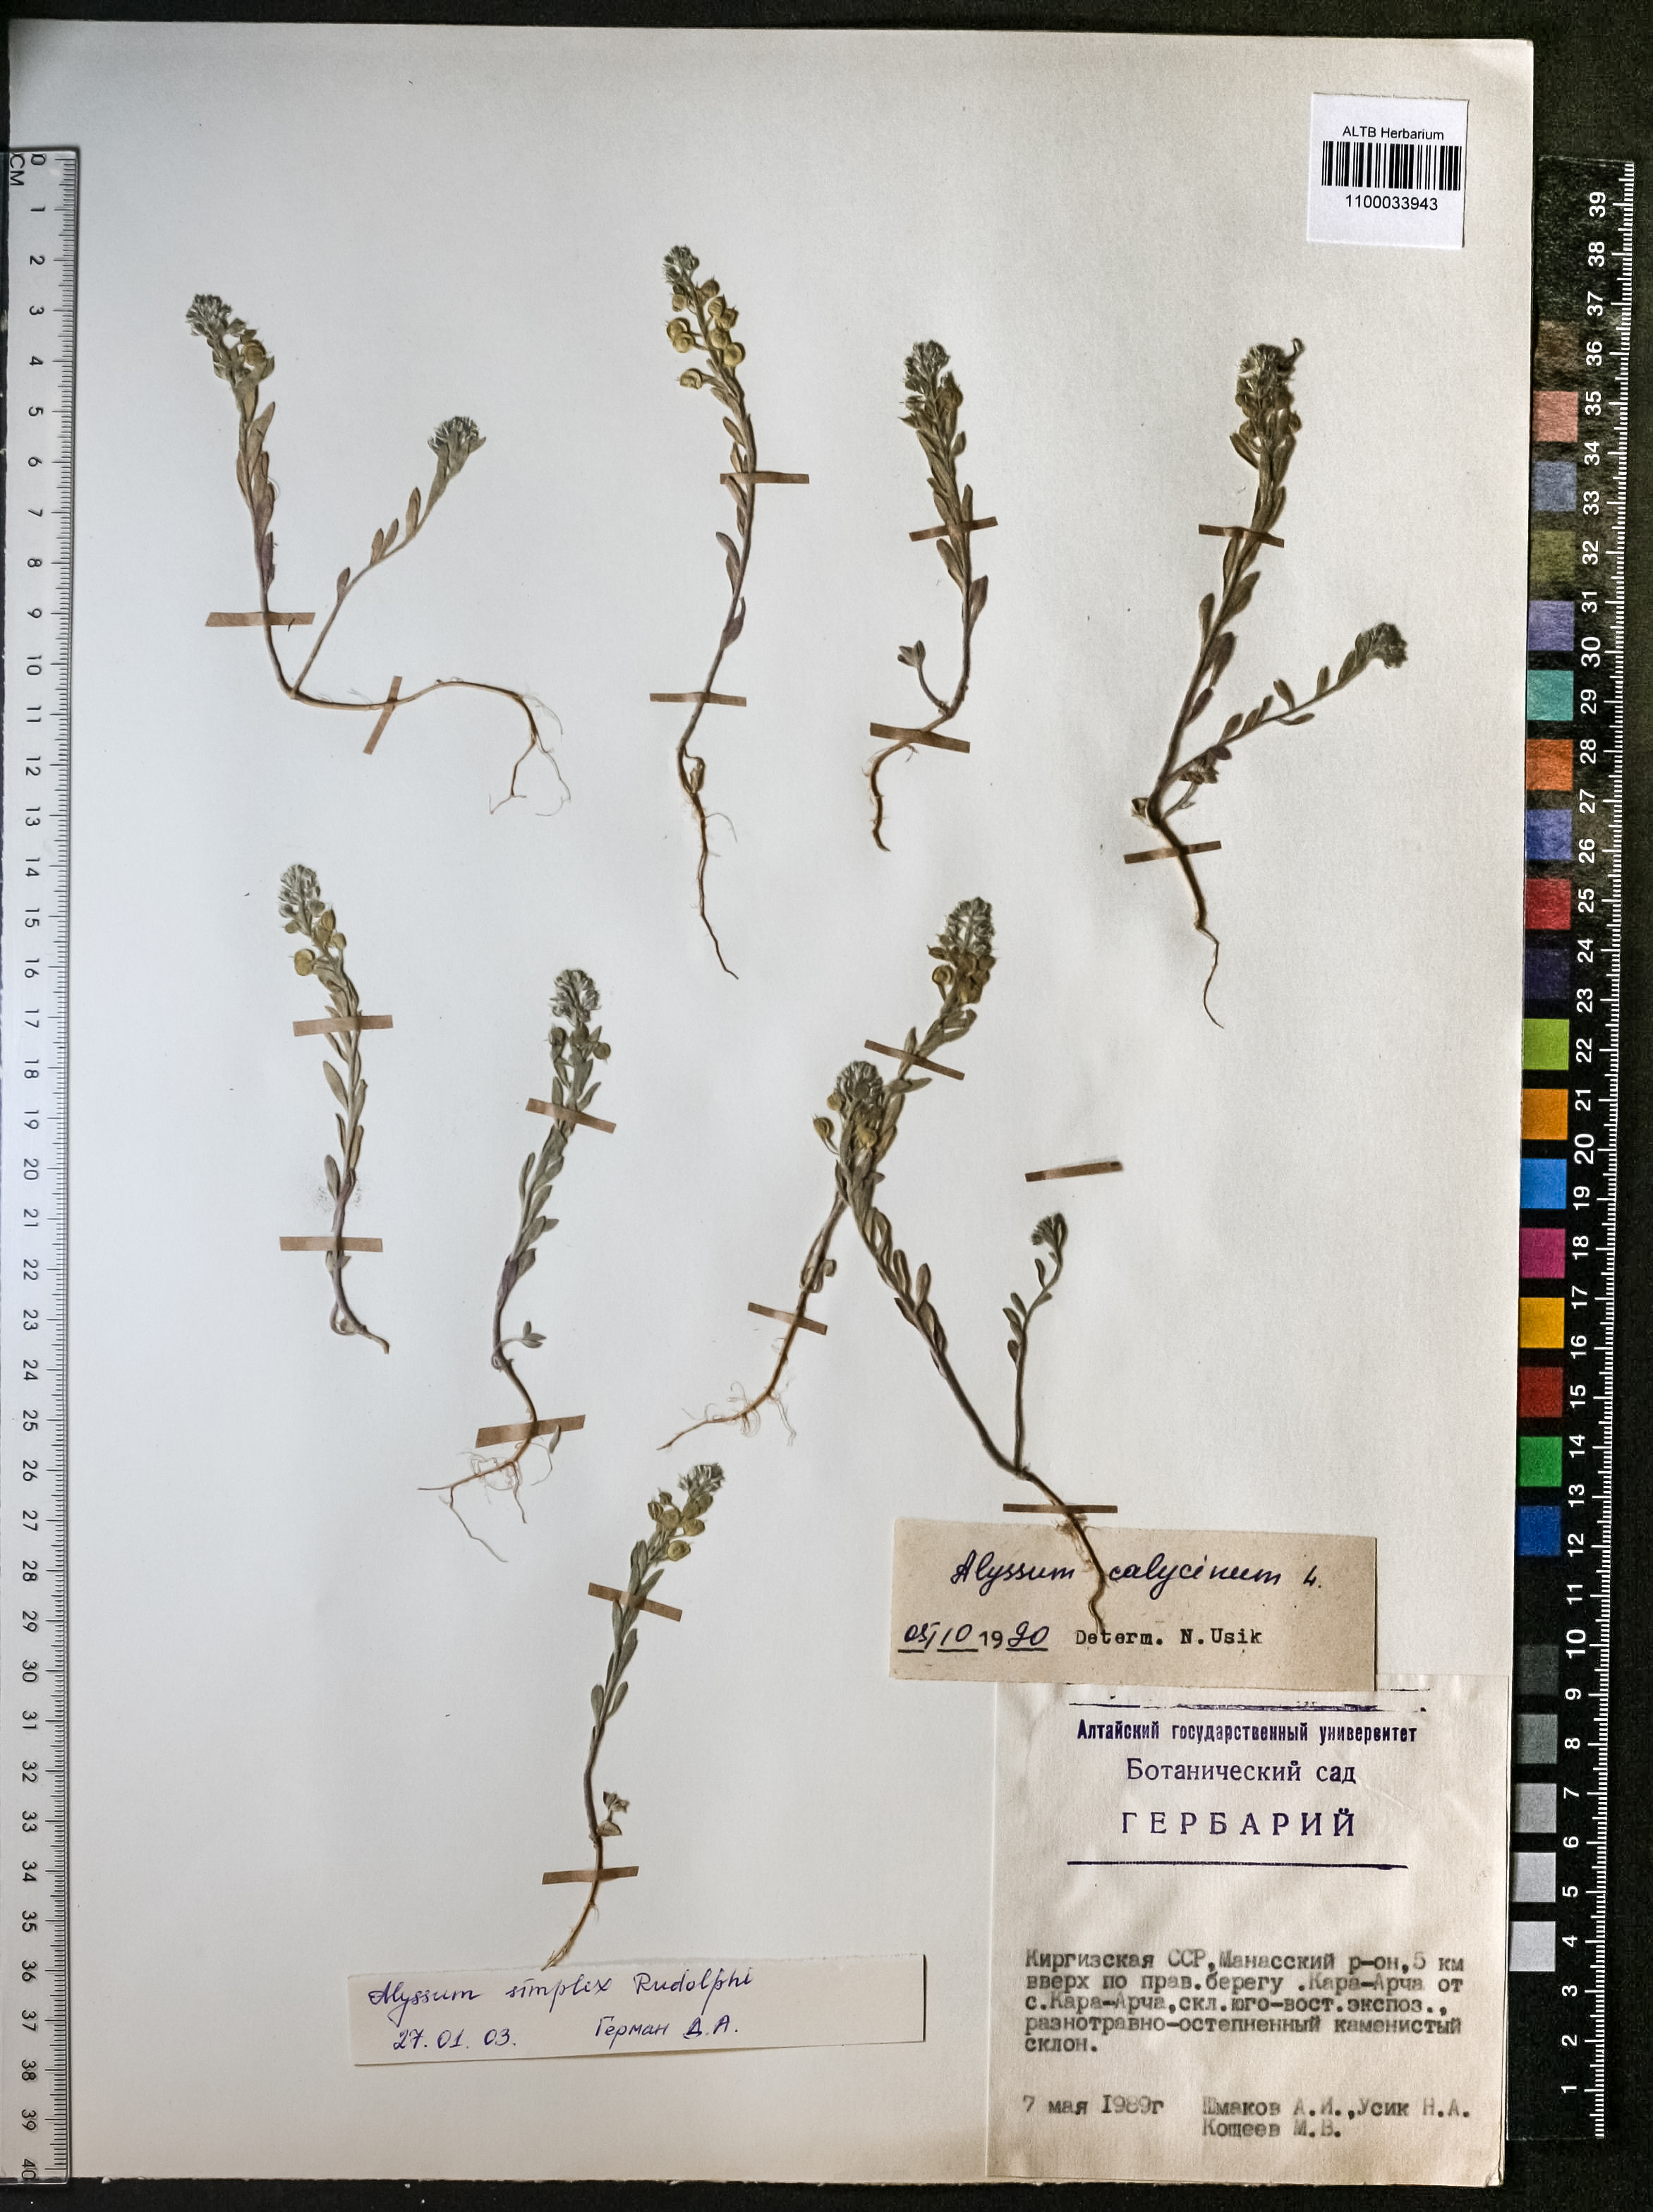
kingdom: Plantae
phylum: Tracheophyta
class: Magnoliopsida
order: Brassicales
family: Brassicaceae
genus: Alyssum
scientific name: Alyssum simplex
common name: Alyssum
